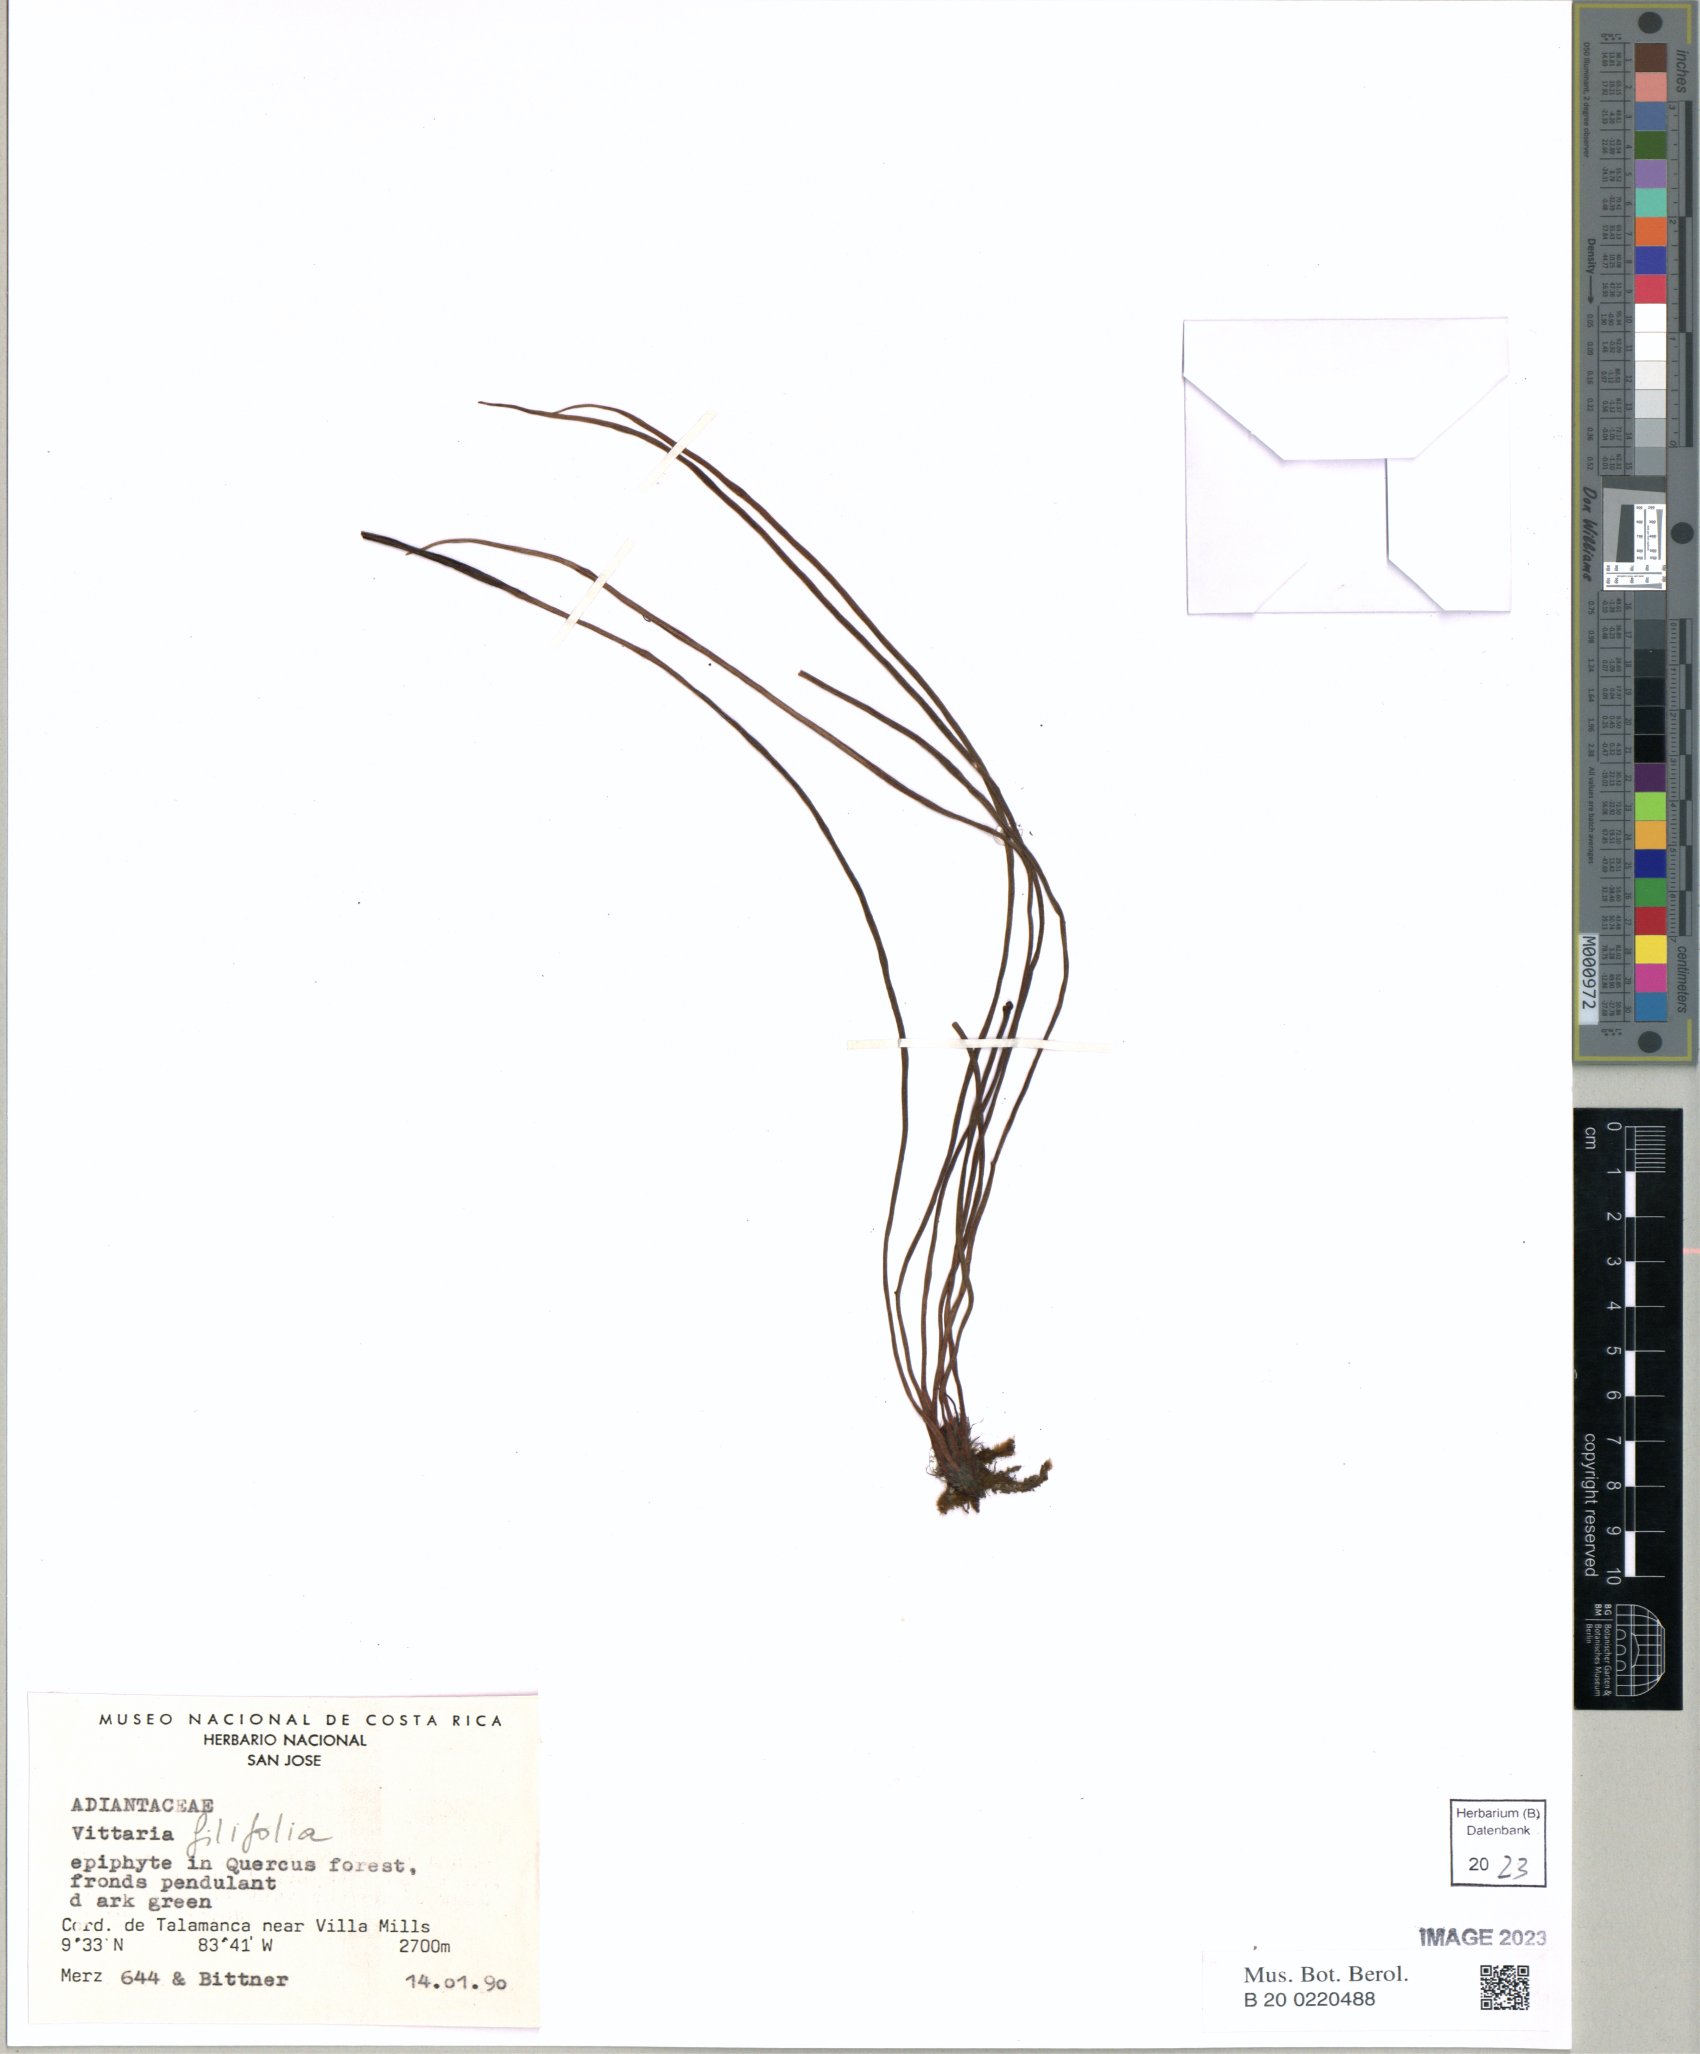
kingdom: Plantae
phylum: Tracheophyta
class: Polypodiopsida
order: Polypodiales
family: Pteridaceae
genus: Vittaria
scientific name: Vittaria graminifolia
